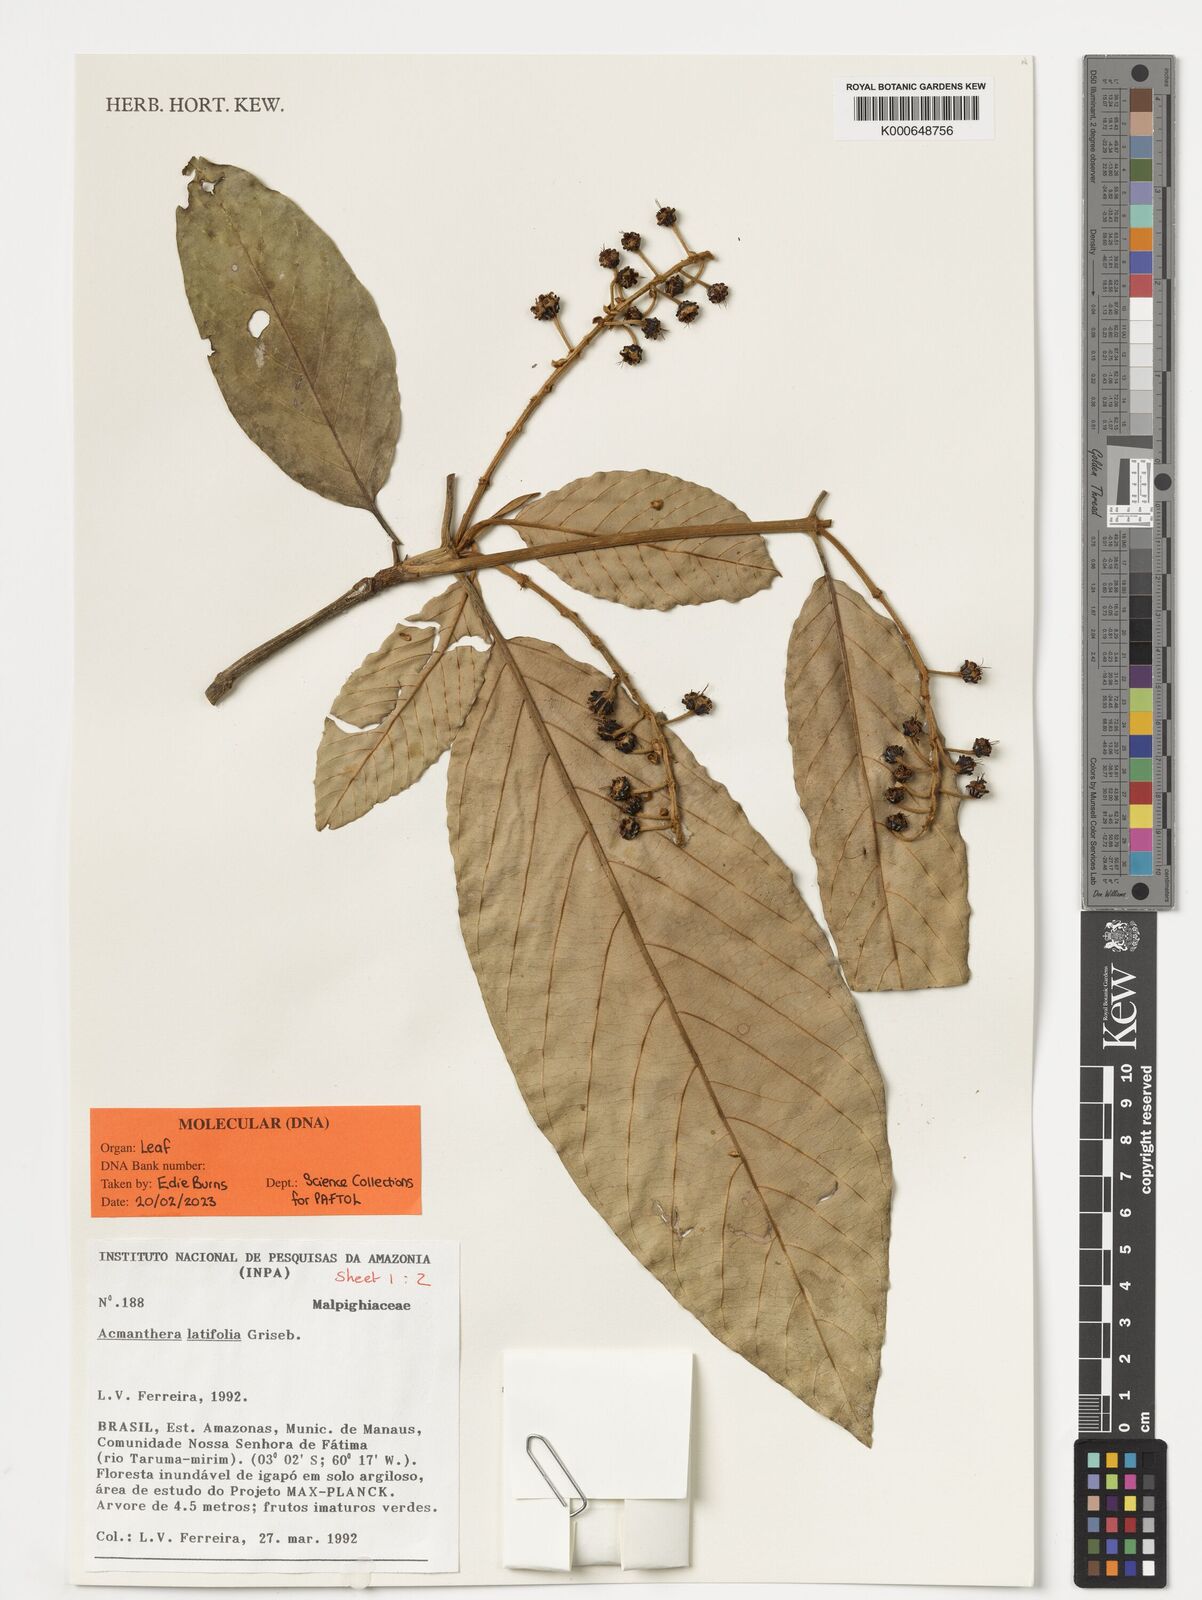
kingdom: Plantae
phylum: Tracheophyta
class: Magnoliopsida
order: Malpighiales
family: Malpighiaceae
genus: Acmanthera
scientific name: Acmanthera latifolia
